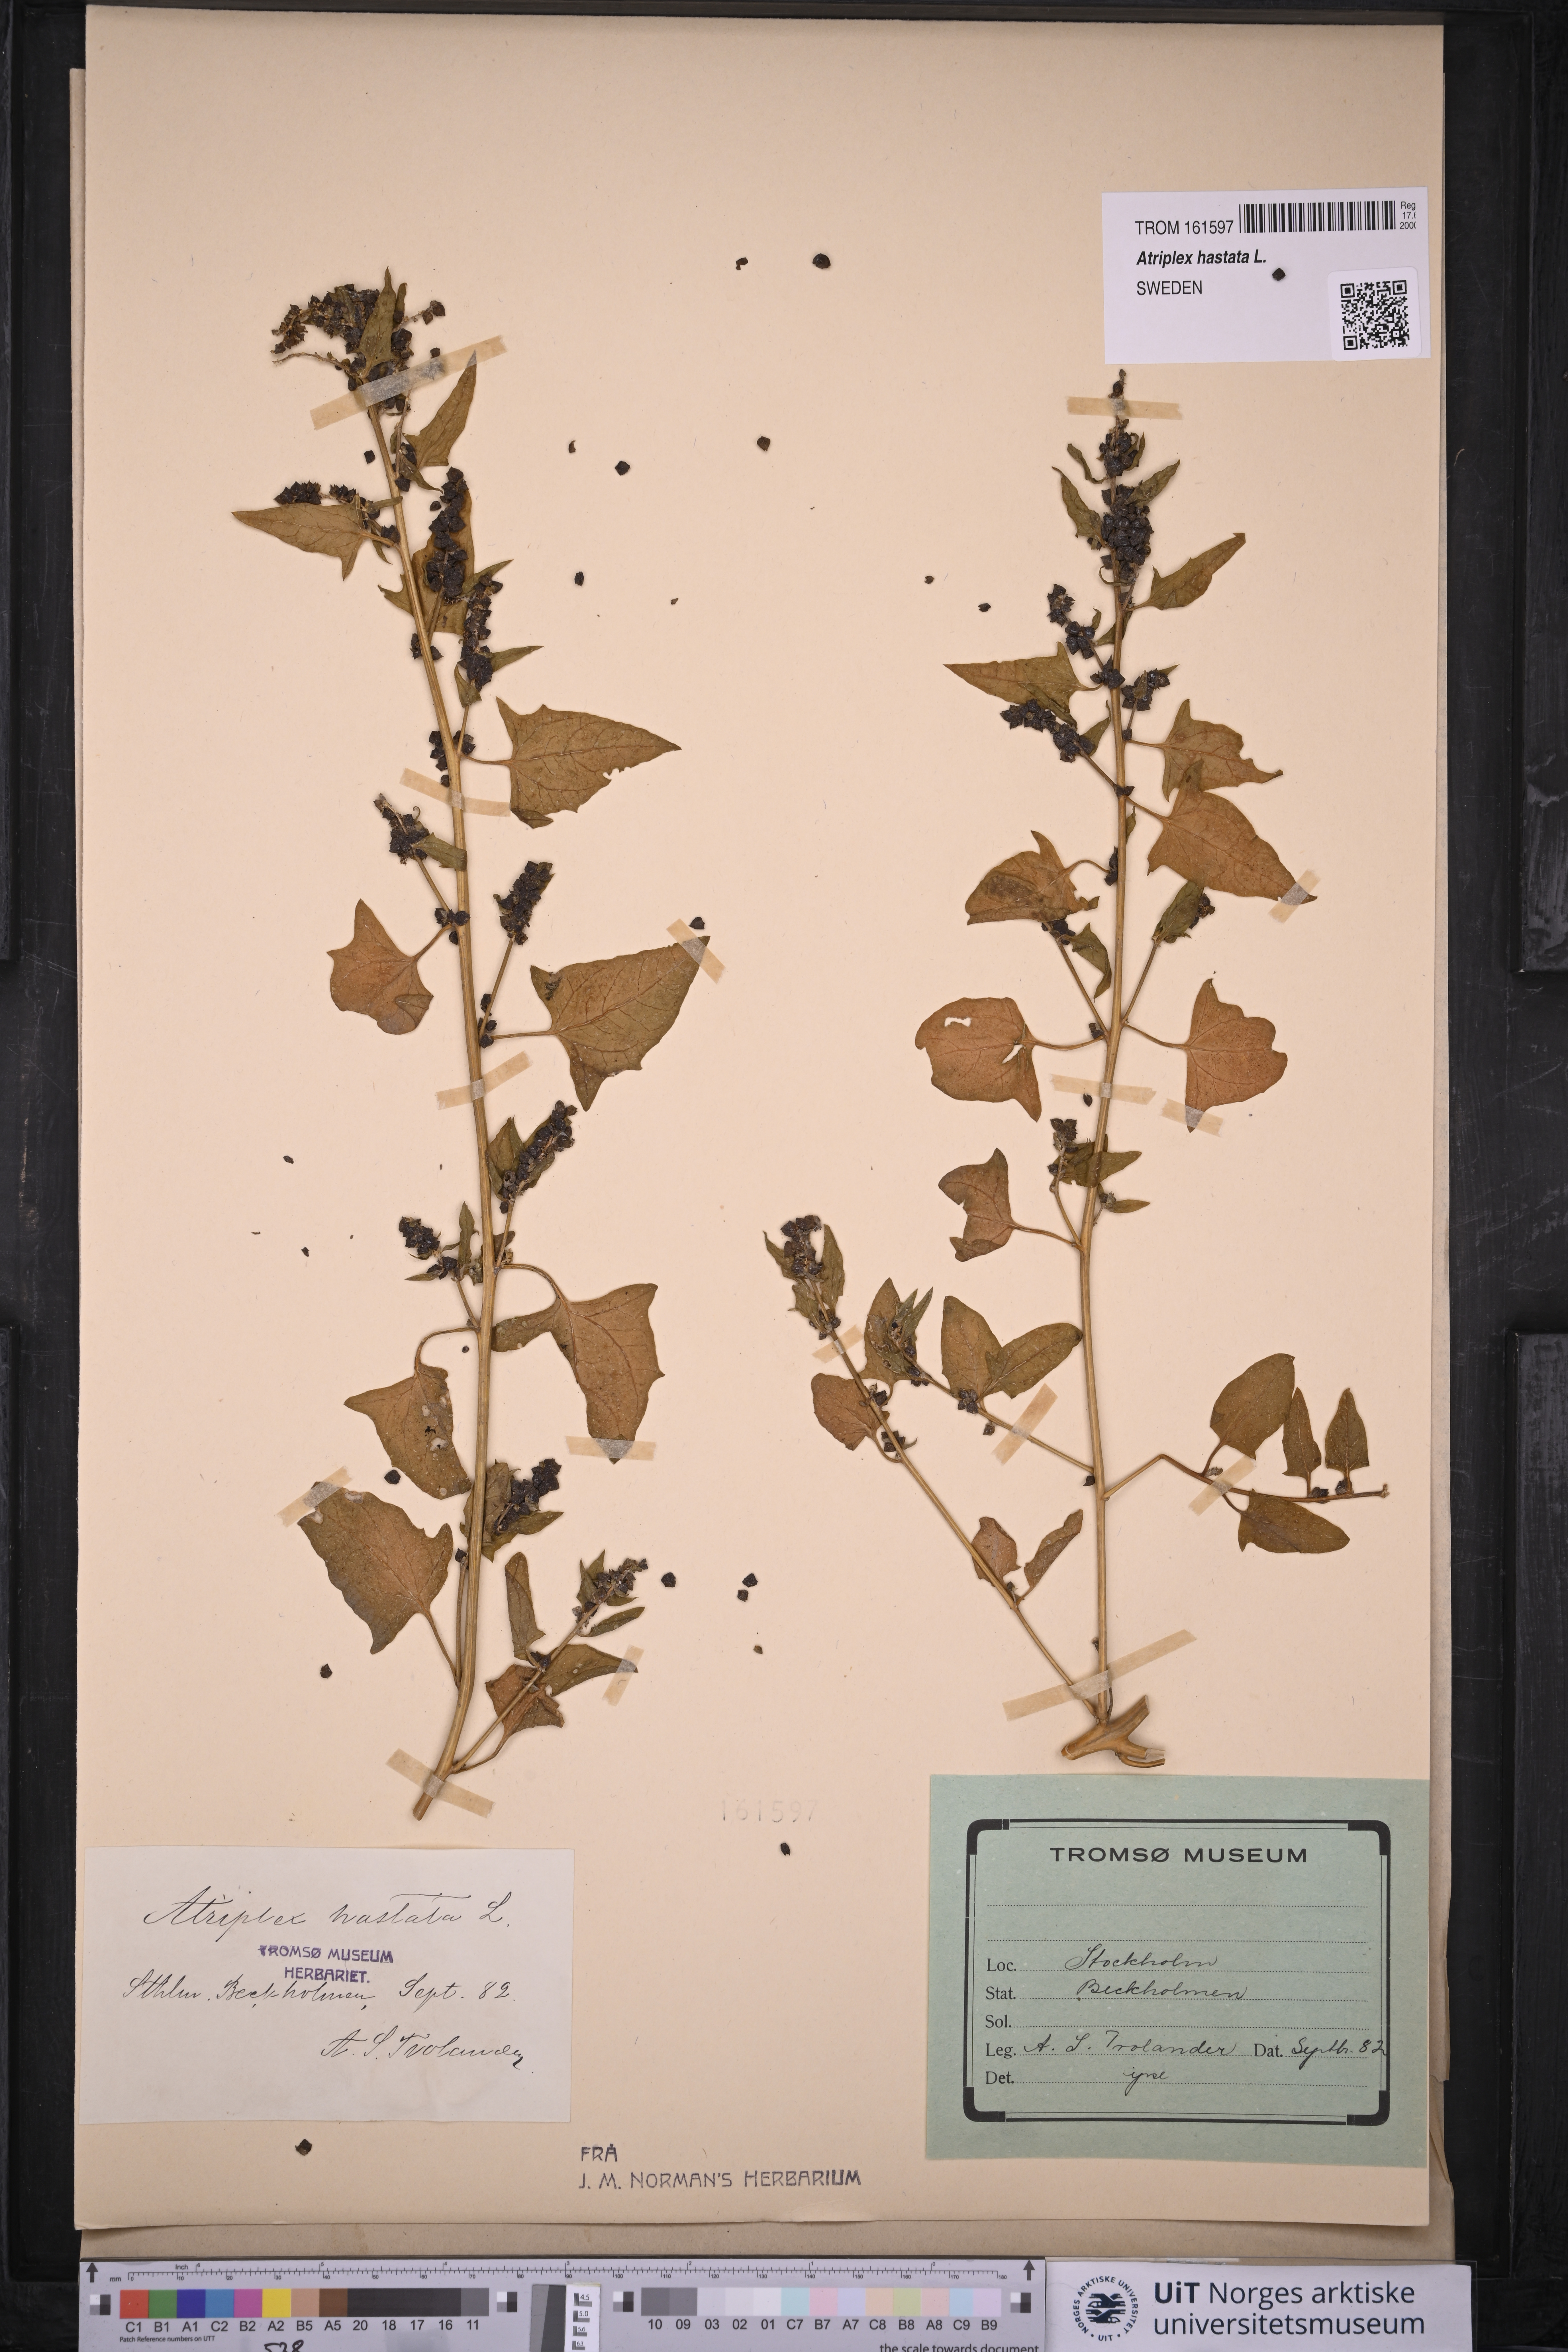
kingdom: Plantae
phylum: Tracheophyta
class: Magnoliopsida
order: Caryophyllales
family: Amaranthaceae
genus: Atriplex
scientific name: Atriplex prostrata
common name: Spear-leaved orache
